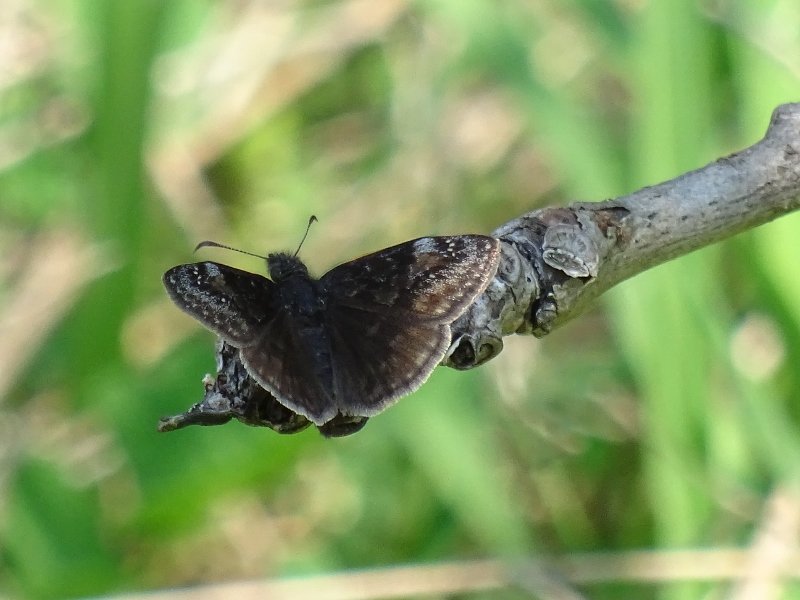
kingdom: Animalia
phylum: Arthropoda
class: Insecta
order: Lepidoptera
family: Hesperiidae
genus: Gesta
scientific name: Gesta
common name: Wild Indigo Duskywing
